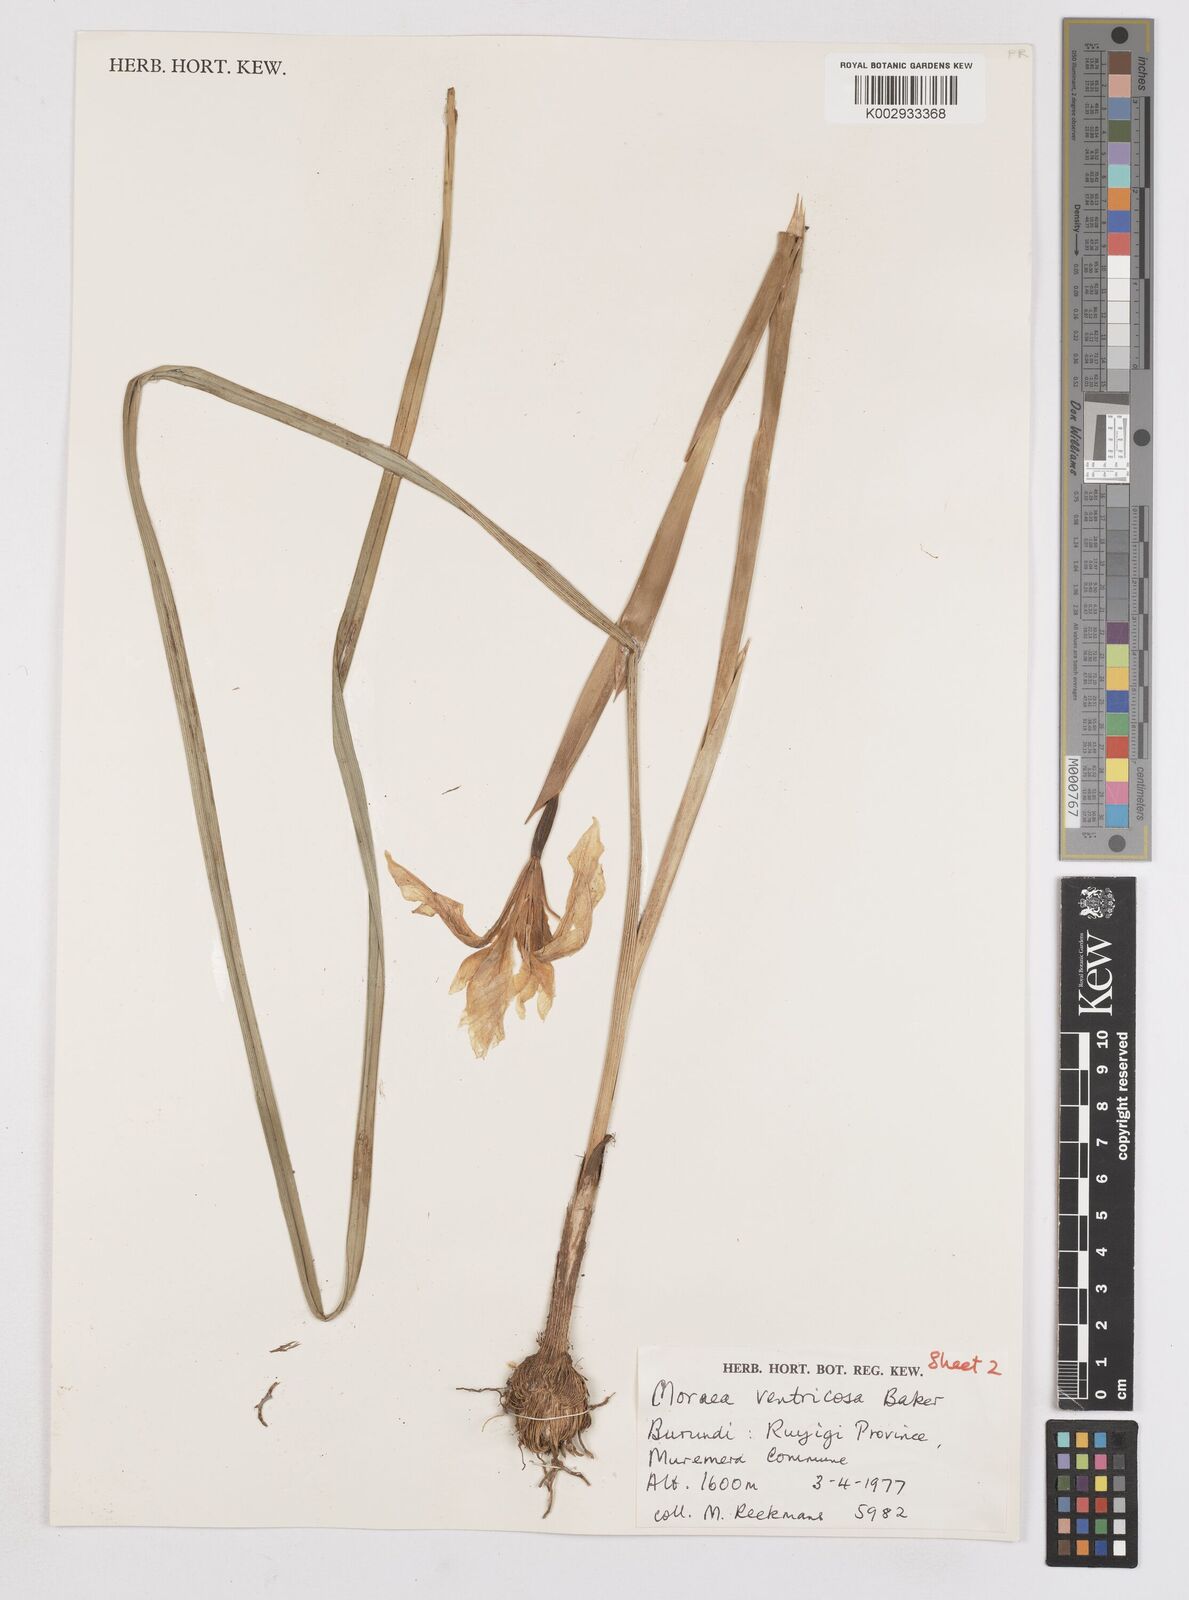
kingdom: Plantae
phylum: Tracheophyta
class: Liliopsida
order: Asparagales
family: Iridaceae
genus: Moraea
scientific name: Moraea ventricosa
